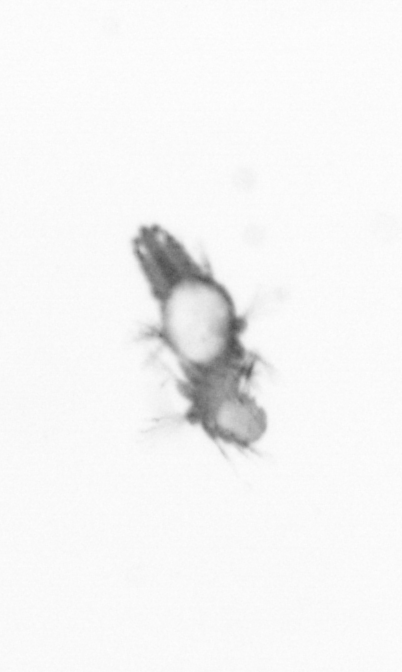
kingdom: Animalia
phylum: Annelida
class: Polychaeta
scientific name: Polychaeta
